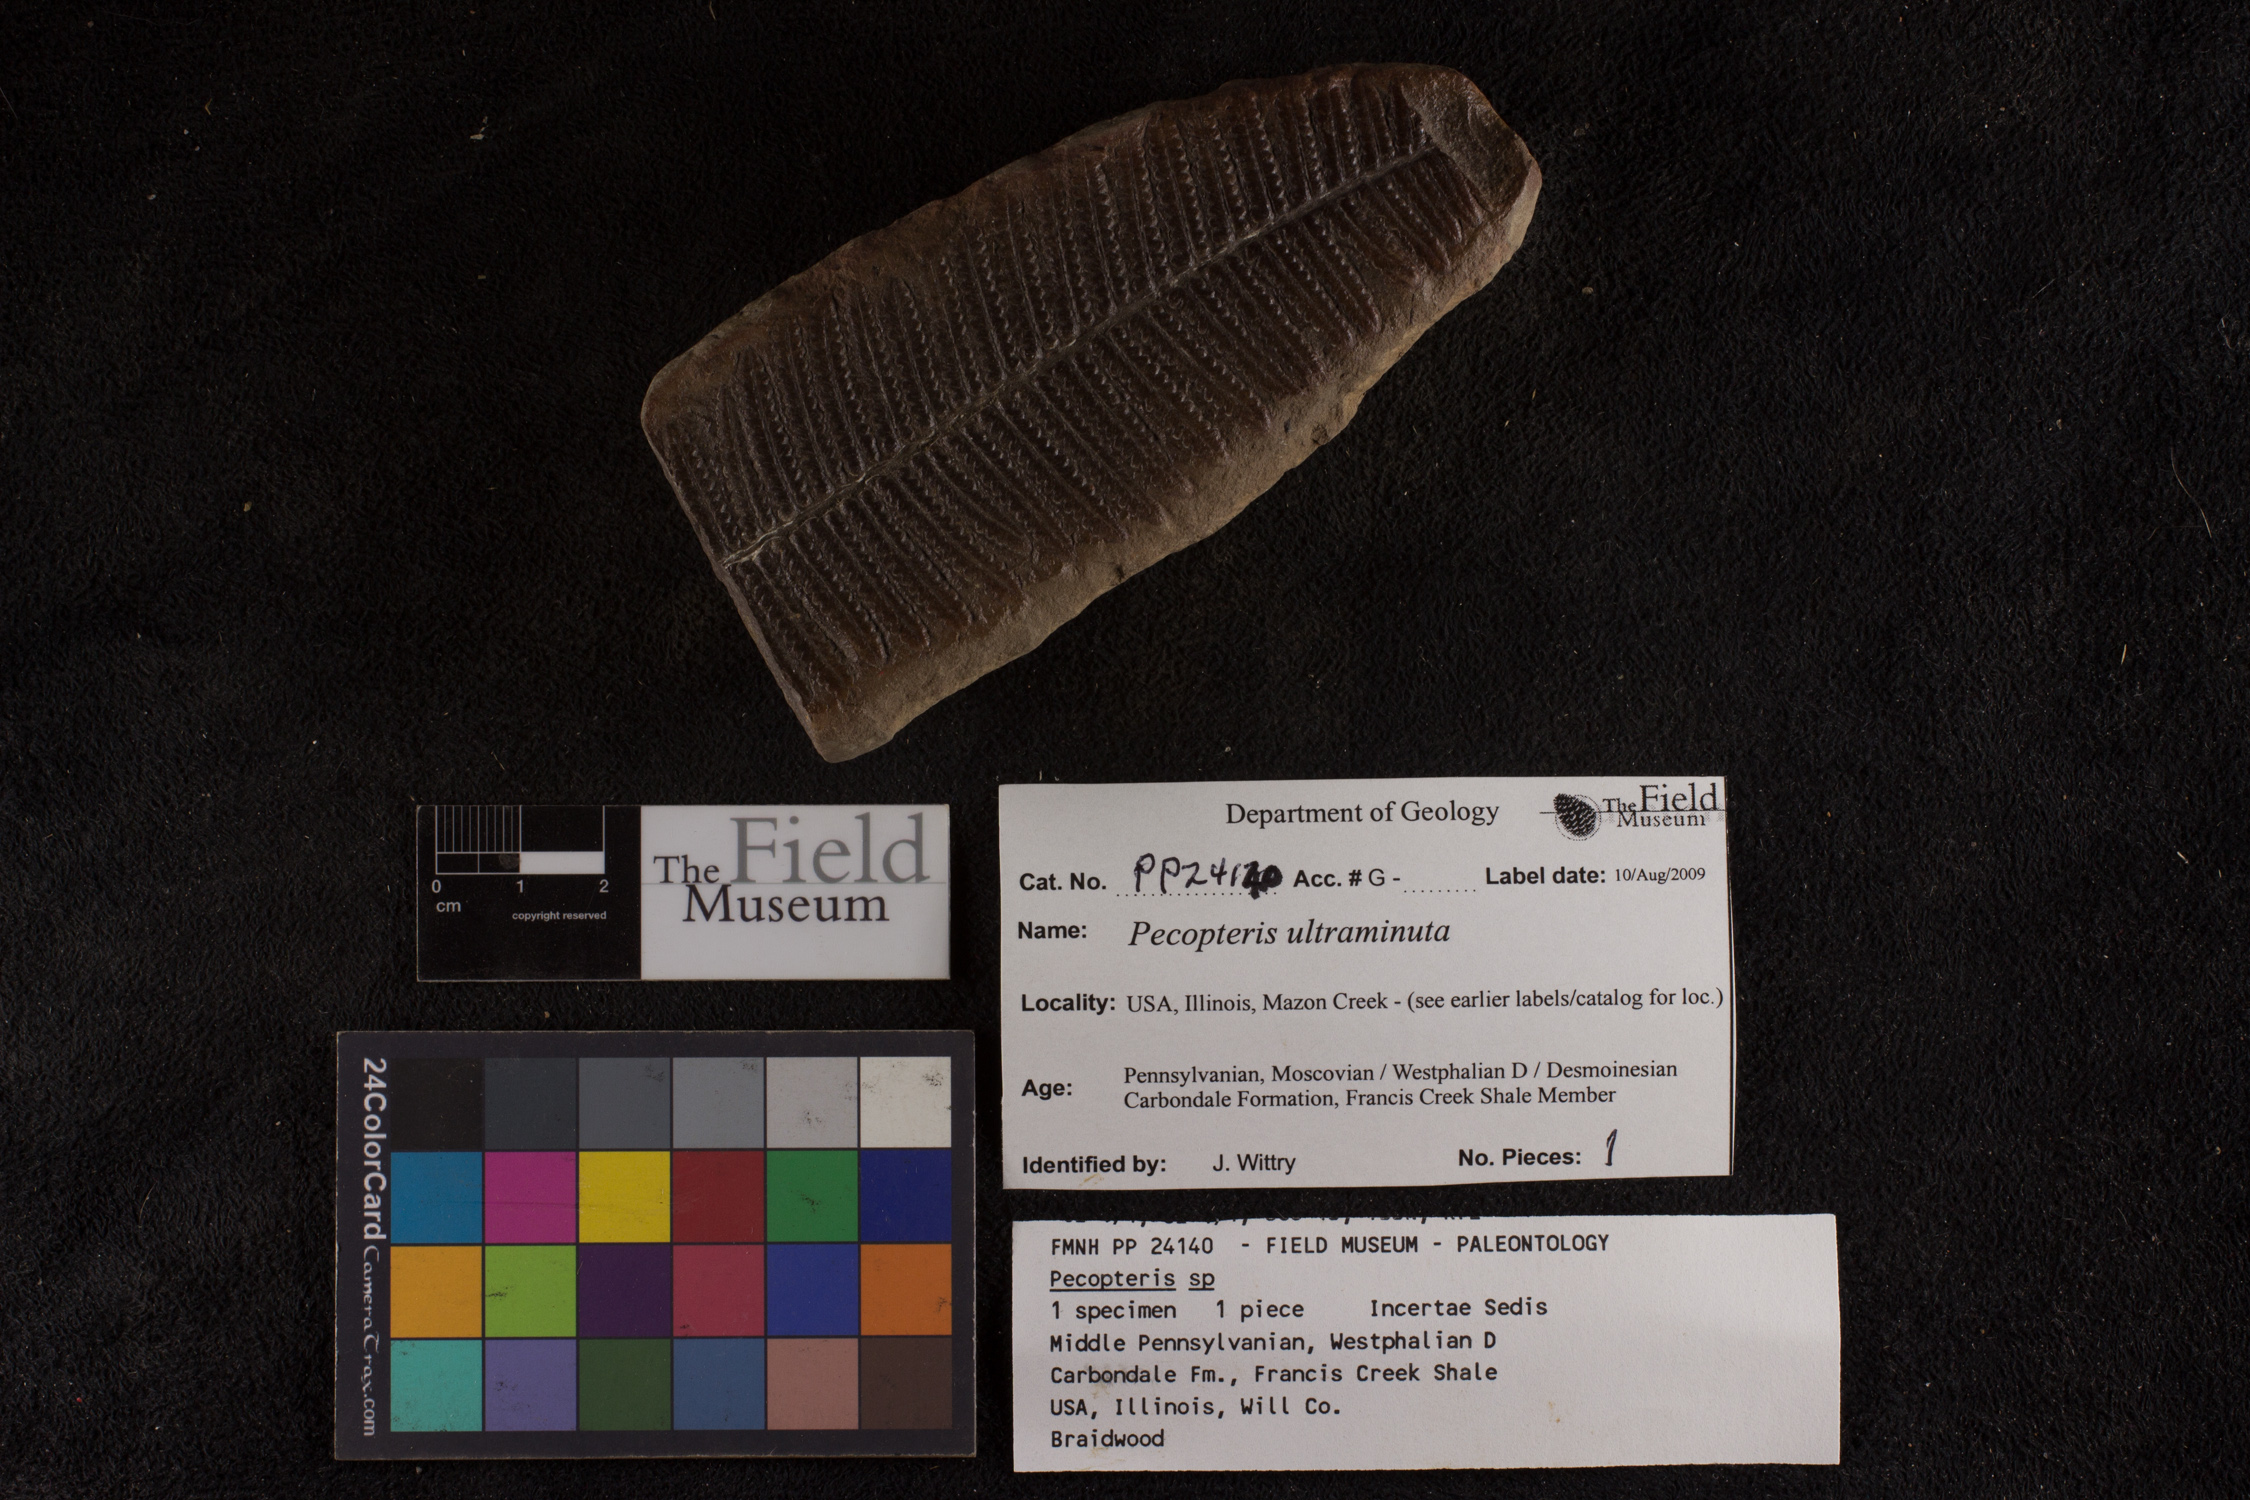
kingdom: Plantae
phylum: Tracheophyta
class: Polypodiopsida
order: Marattiales
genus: Cyathocarpus
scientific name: Cyathocarpus
